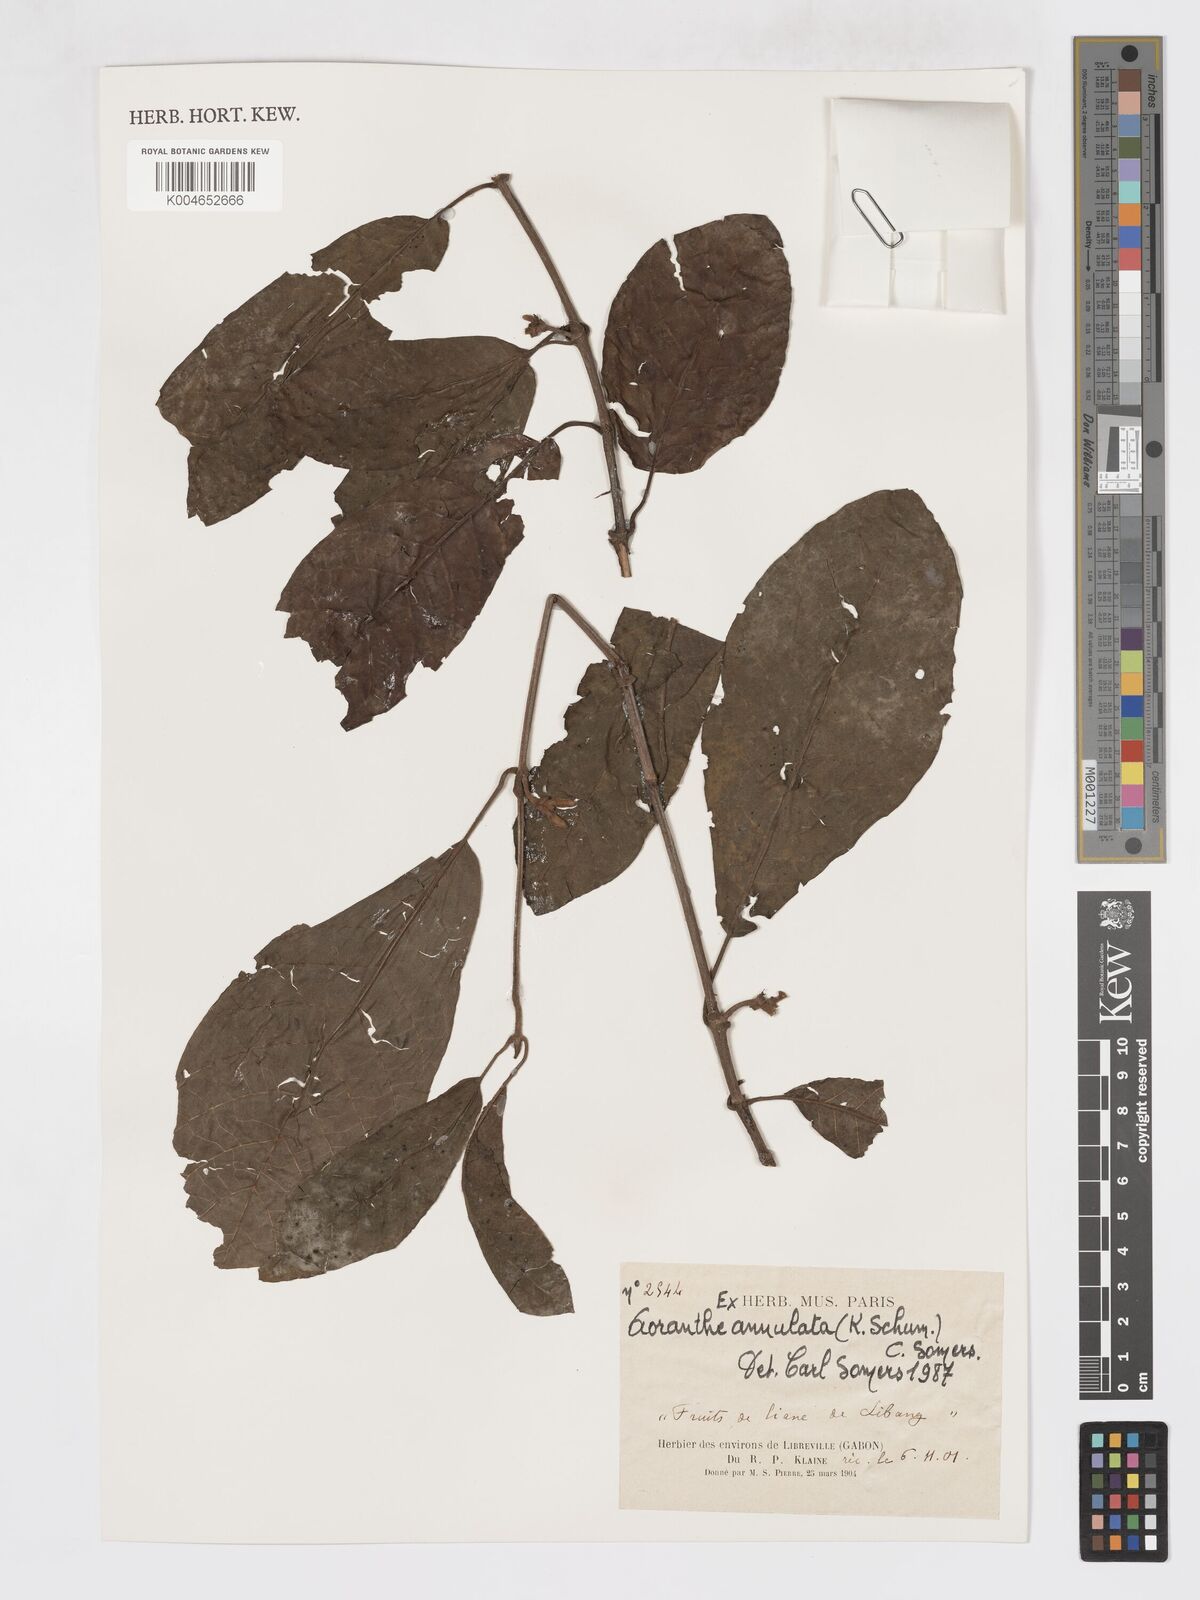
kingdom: Plantae
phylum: Tracheophyta
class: Magnoliopsida
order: Gentianales
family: Rubiaceae
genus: Aoranthe
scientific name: Aoranthe annulata
